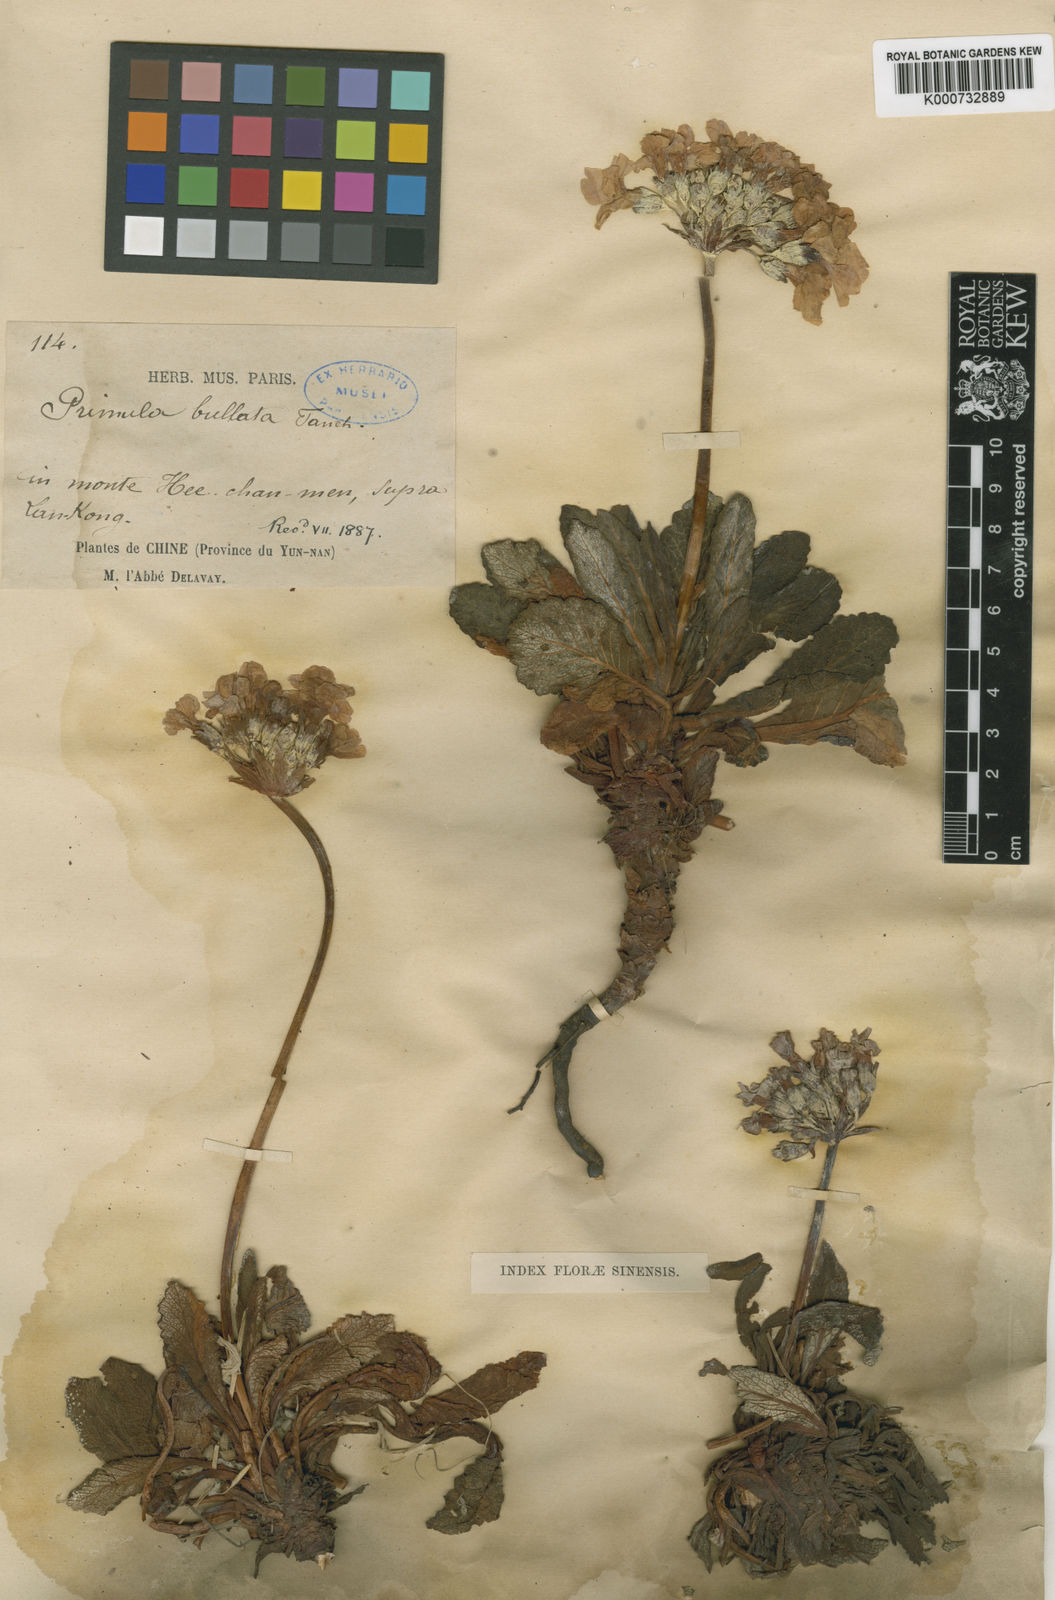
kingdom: Plantae
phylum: Tracheophyta
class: Magnoliopsida
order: Ericales
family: Primulaceae
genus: Primula
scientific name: Primula bullata
